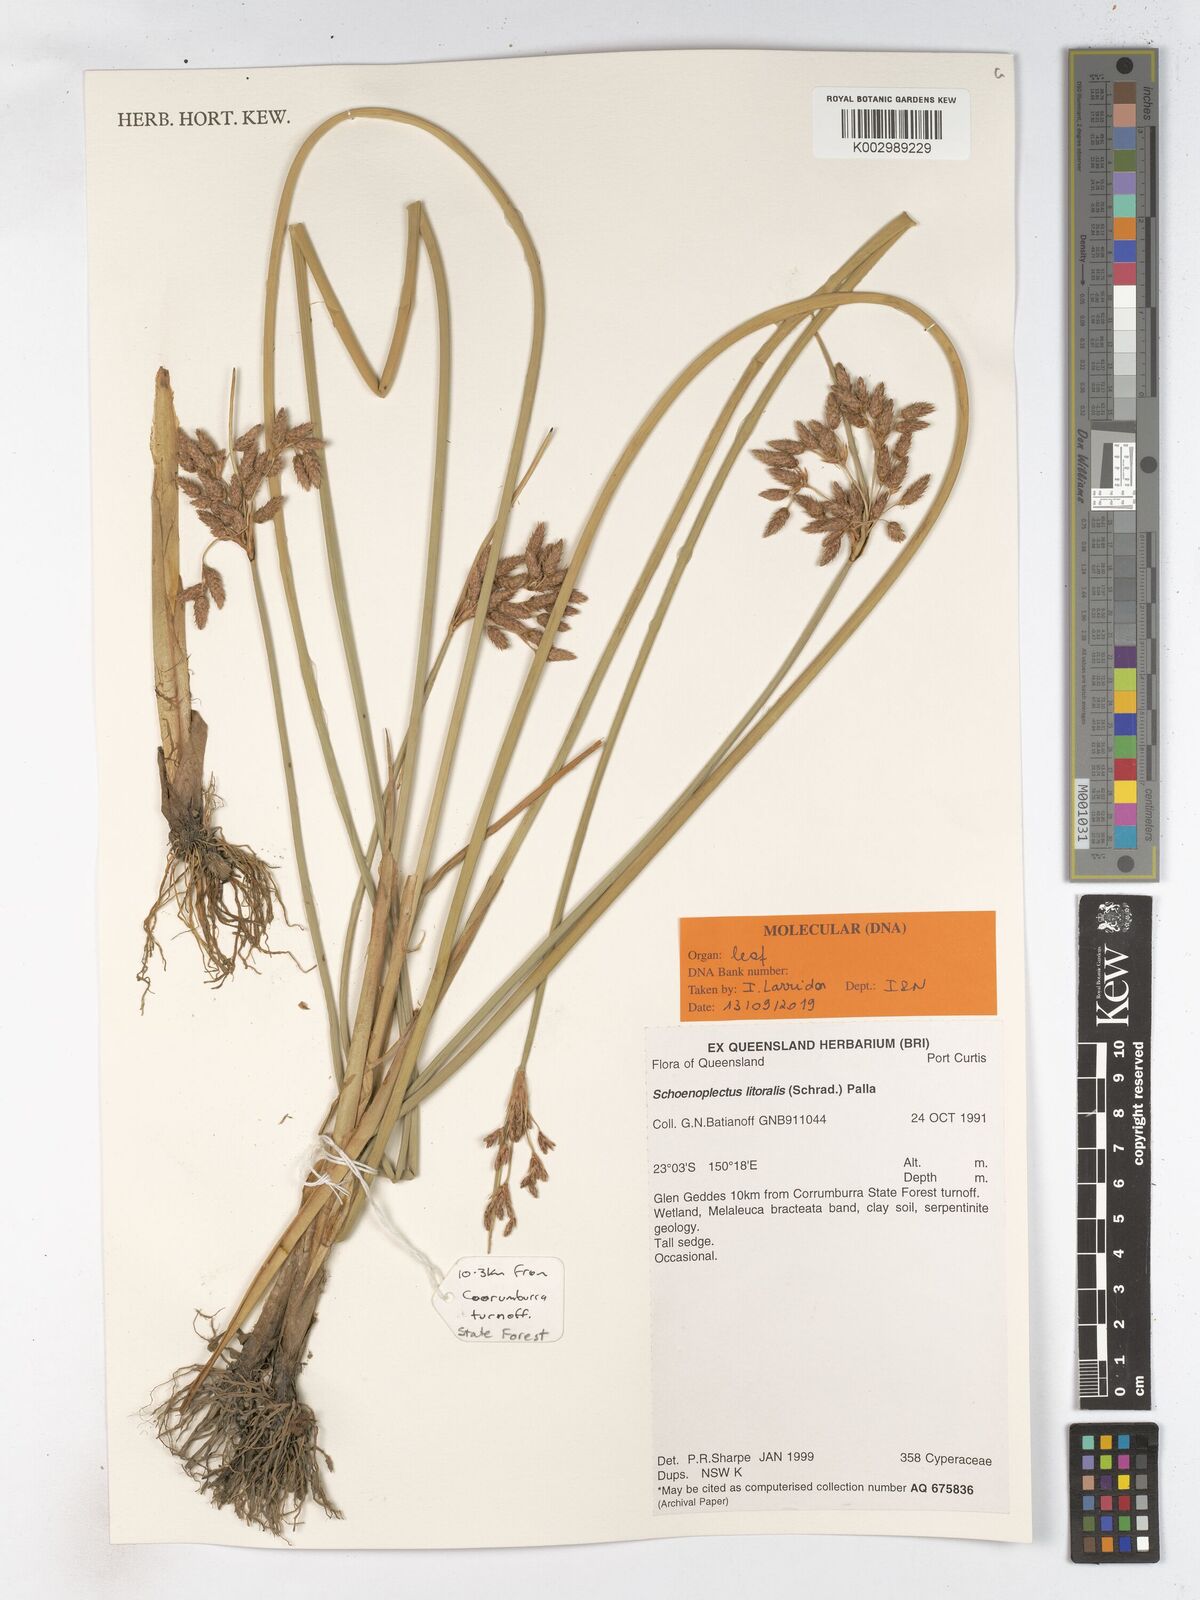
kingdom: Plantae
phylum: Tracheophyta
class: Liliopsida
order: Poales
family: Cyperaceae
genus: Schoenoplectus
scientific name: Schoenoplectus litoralis
